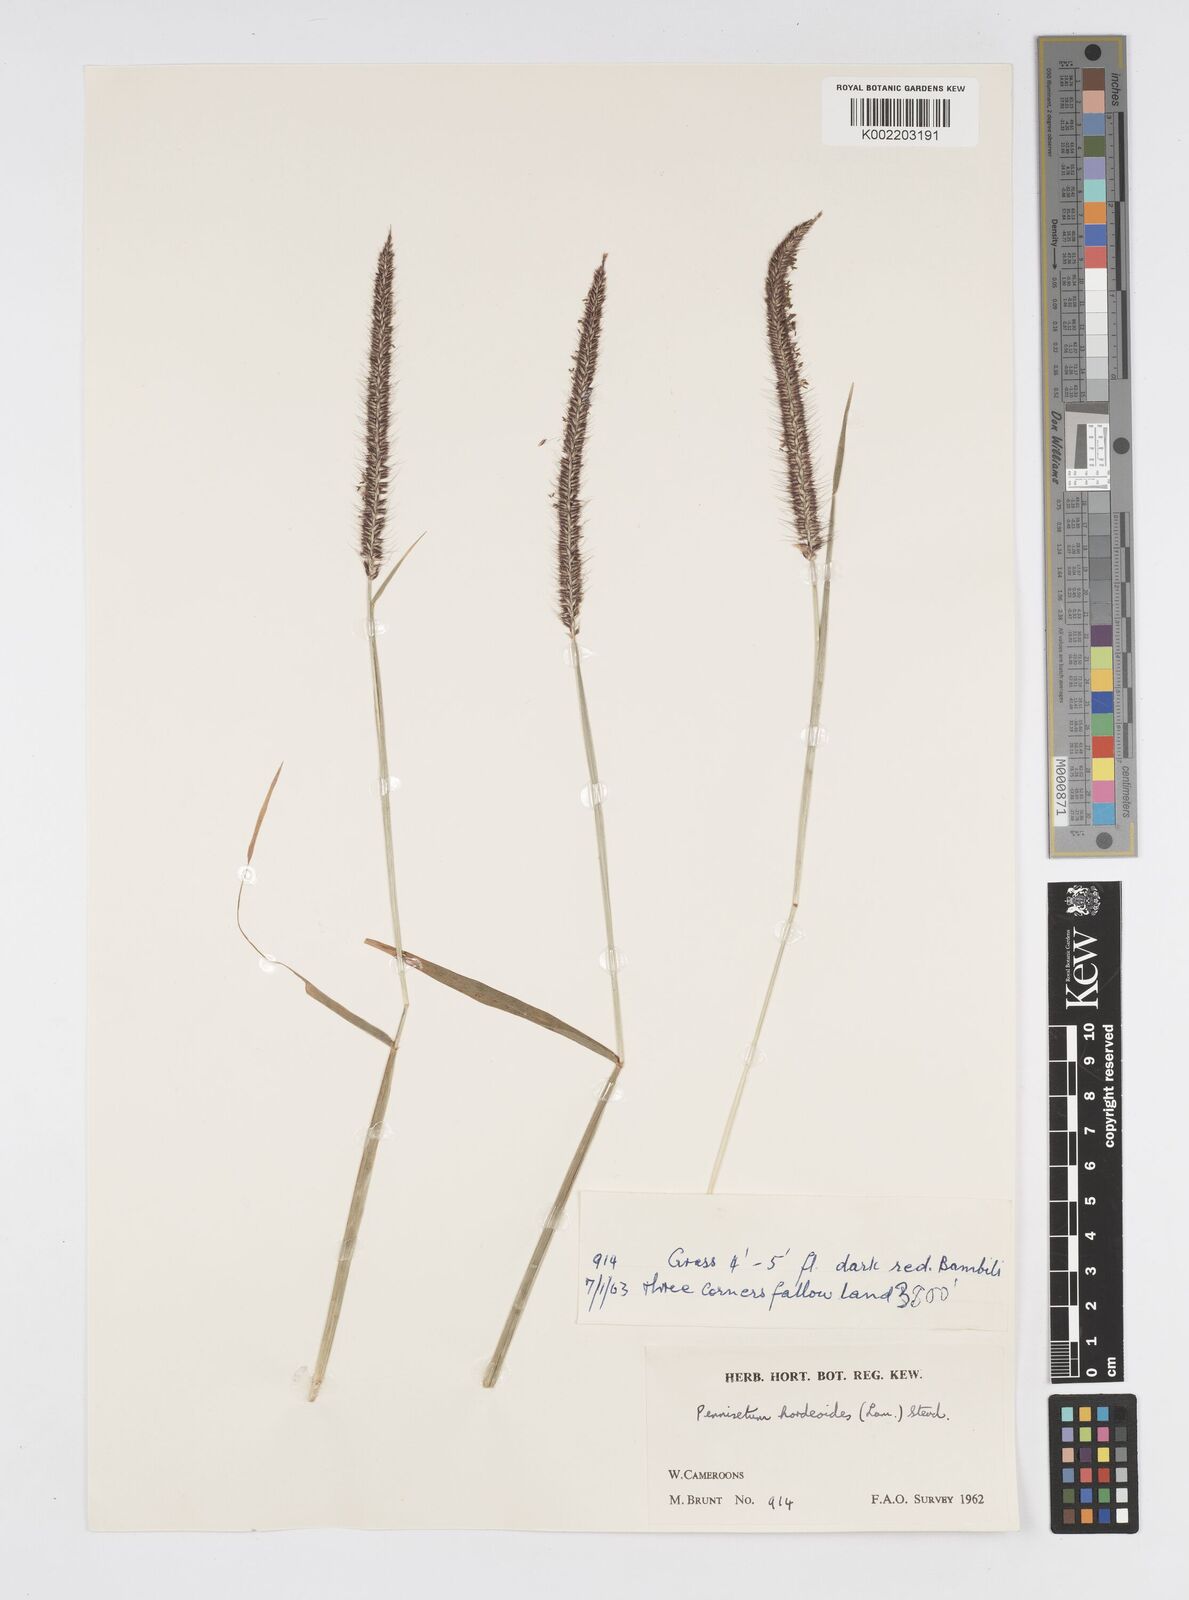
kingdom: Plantae
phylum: Tracheophyta
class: Liliopsida
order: Poales
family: Poaceae
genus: Cenchrus
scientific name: Cenchrus hordeoides
